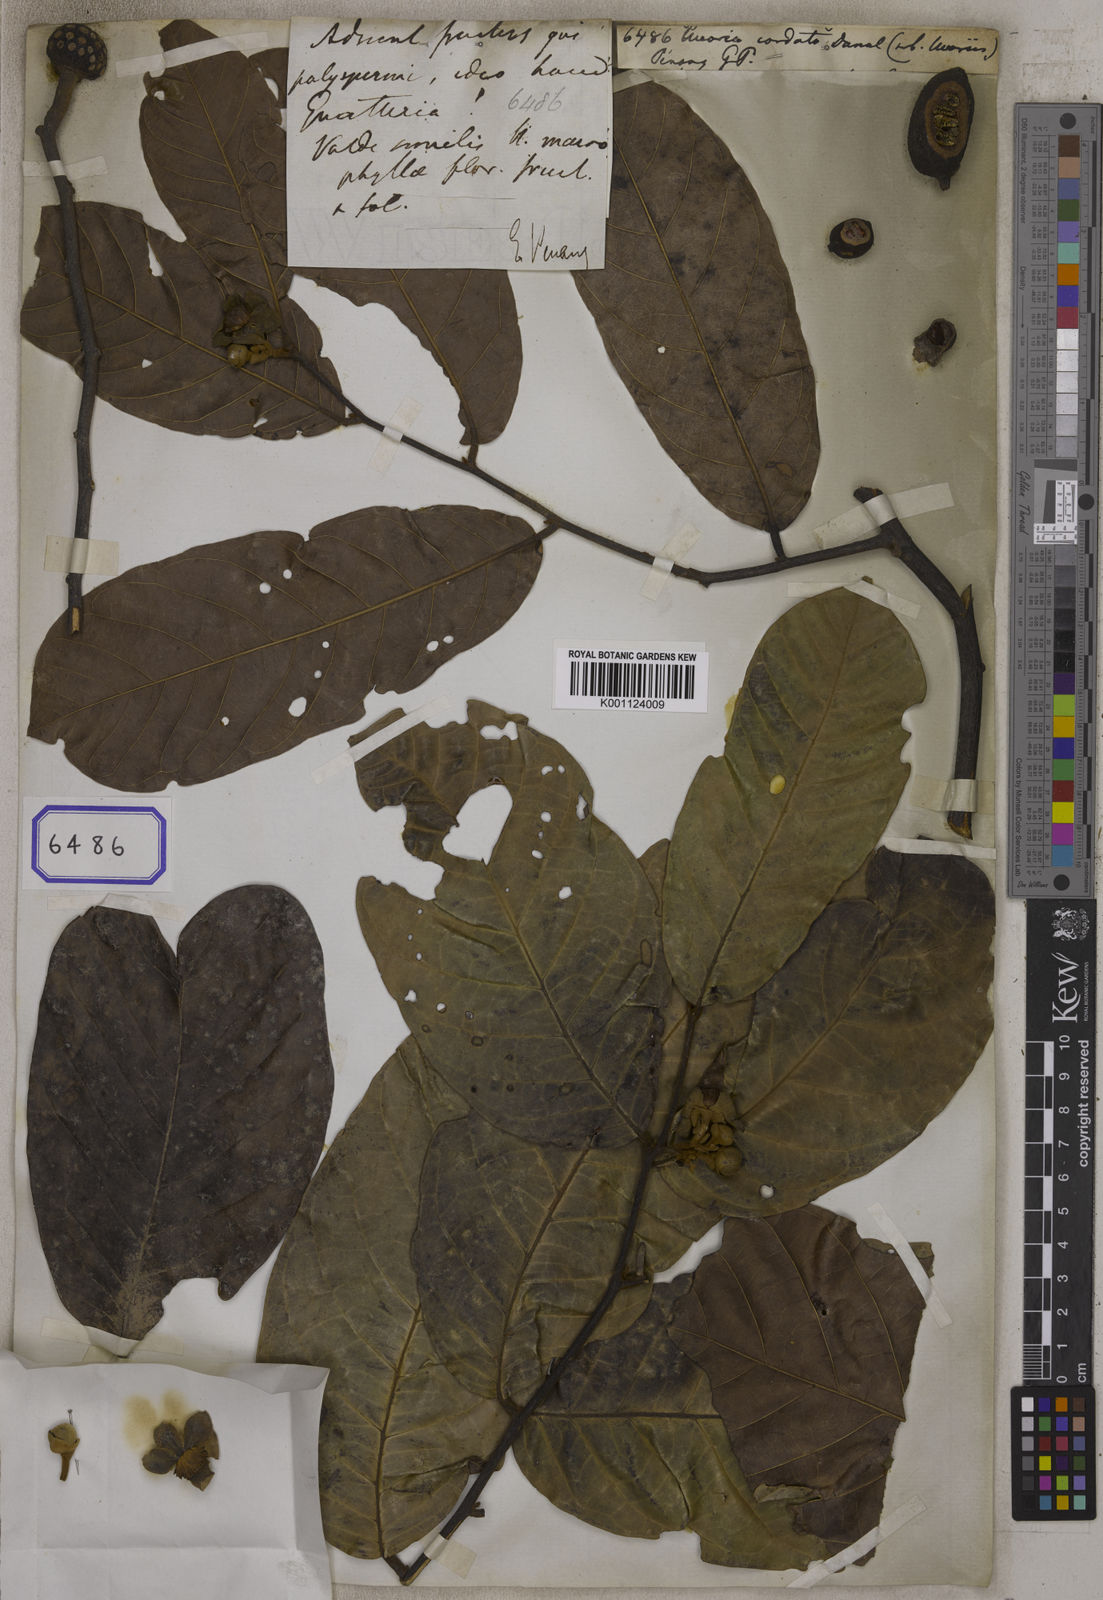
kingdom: Plantae
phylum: Tracheophyta
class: Magnoliopsida
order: Magnoliales
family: Annonaceae
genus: Uvaria
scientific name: Uvaria littoralis
